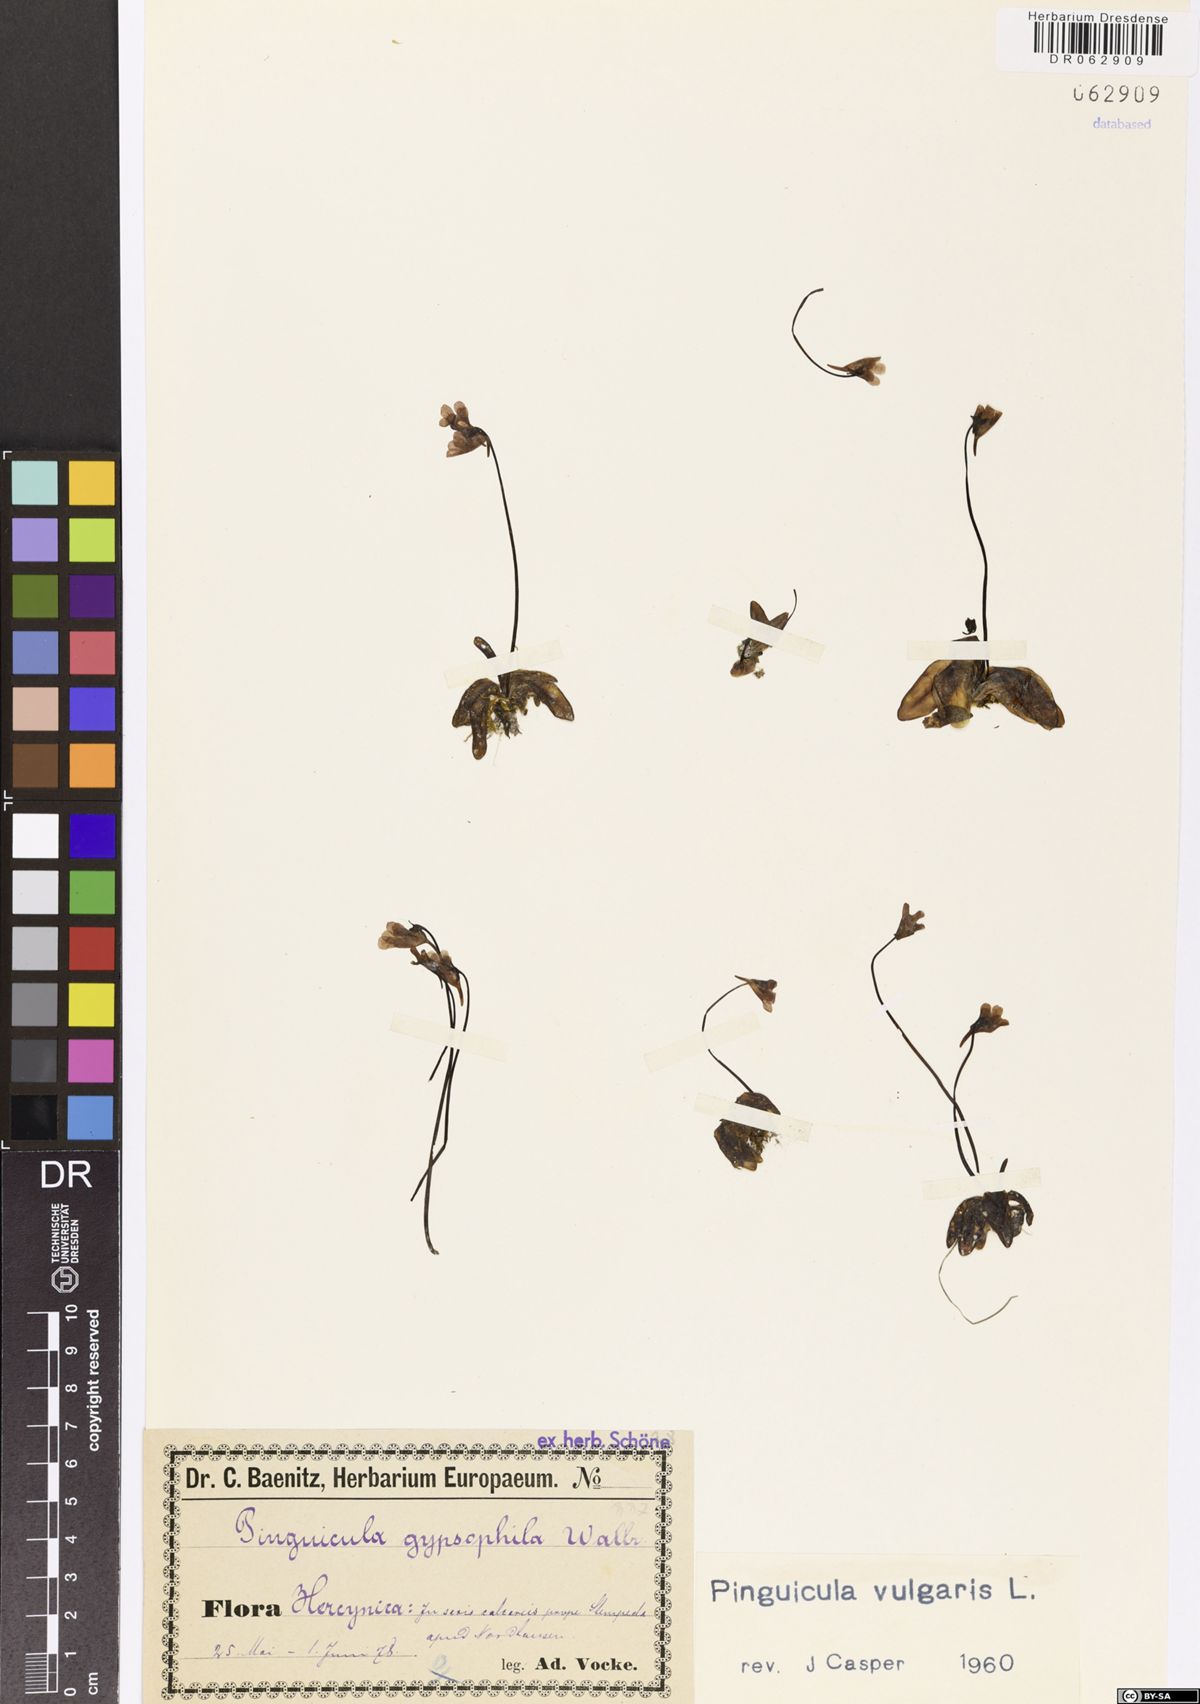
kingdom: Plantae
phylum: Tracheophyta
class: Magnoliopsida
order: Lamiales
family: Lentibulariaceae
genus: Pinguicula
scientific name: Pinguicula vulgaris
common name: Common butterwort
